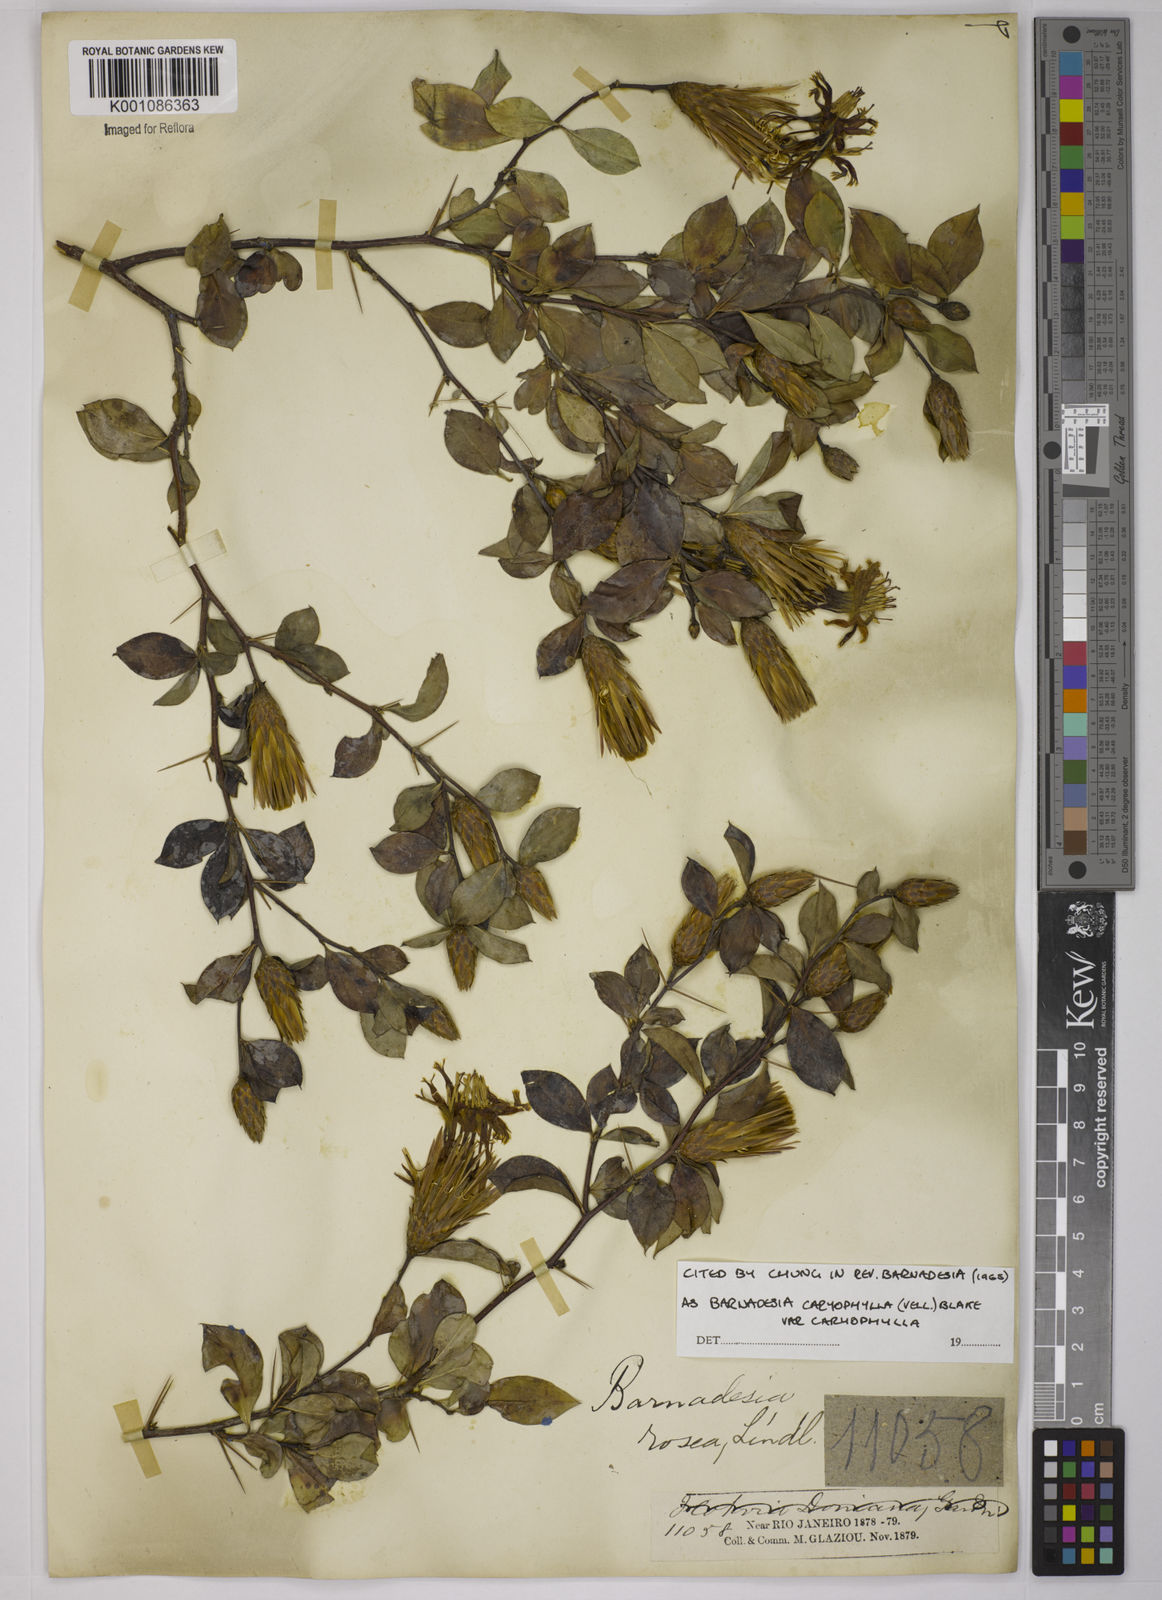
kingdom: Plantae
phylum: Tracheophyta
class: Magnoliopsida
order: Asterales
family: Asteraceae
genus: Barnadesia
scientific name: Barnadesia caryophylla
